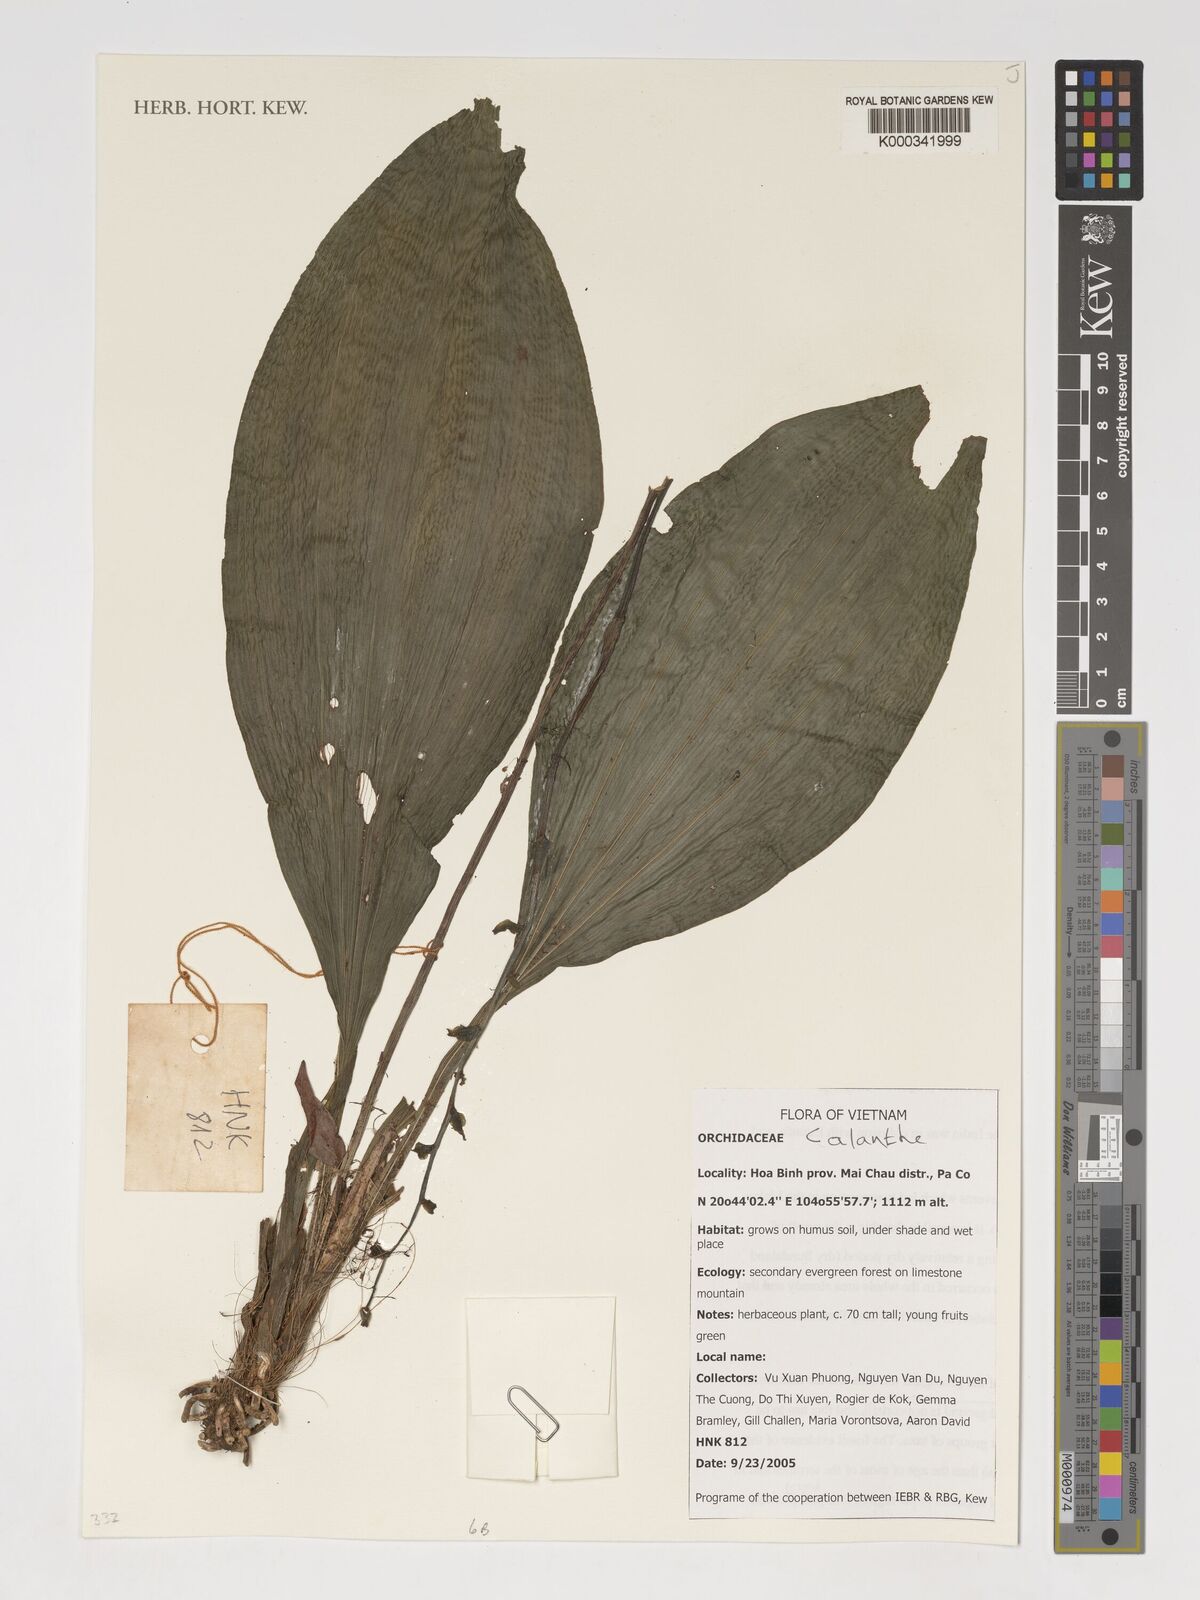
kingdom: Plantae
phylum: Tracheophyta
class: Liliopsida
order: Asparagales
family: Orchidaceae
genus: Calanthe
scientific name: Calanthe
